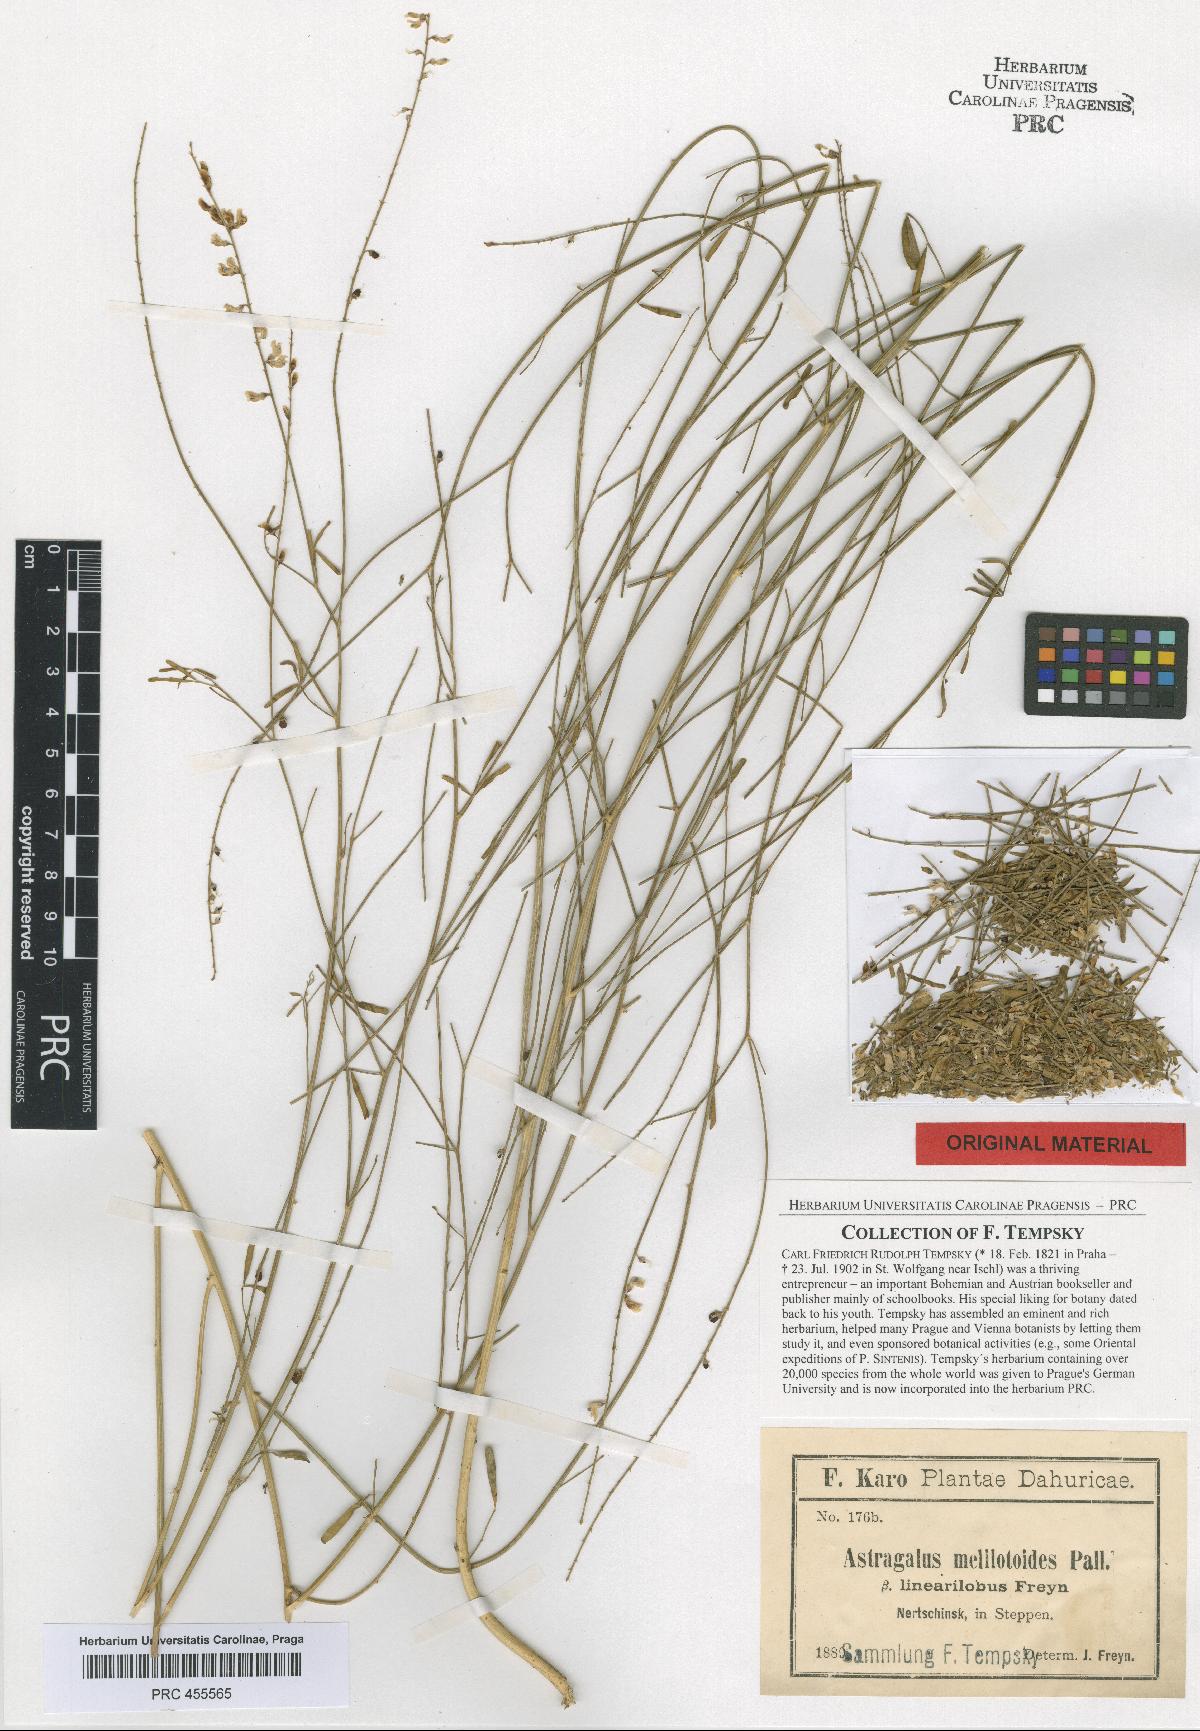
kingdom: Plantae
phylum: Tracheophyta
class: Magnoliopsida
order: Fabales
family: Fabaceae
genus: Astragalus
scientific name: Astragalus melilotoides
